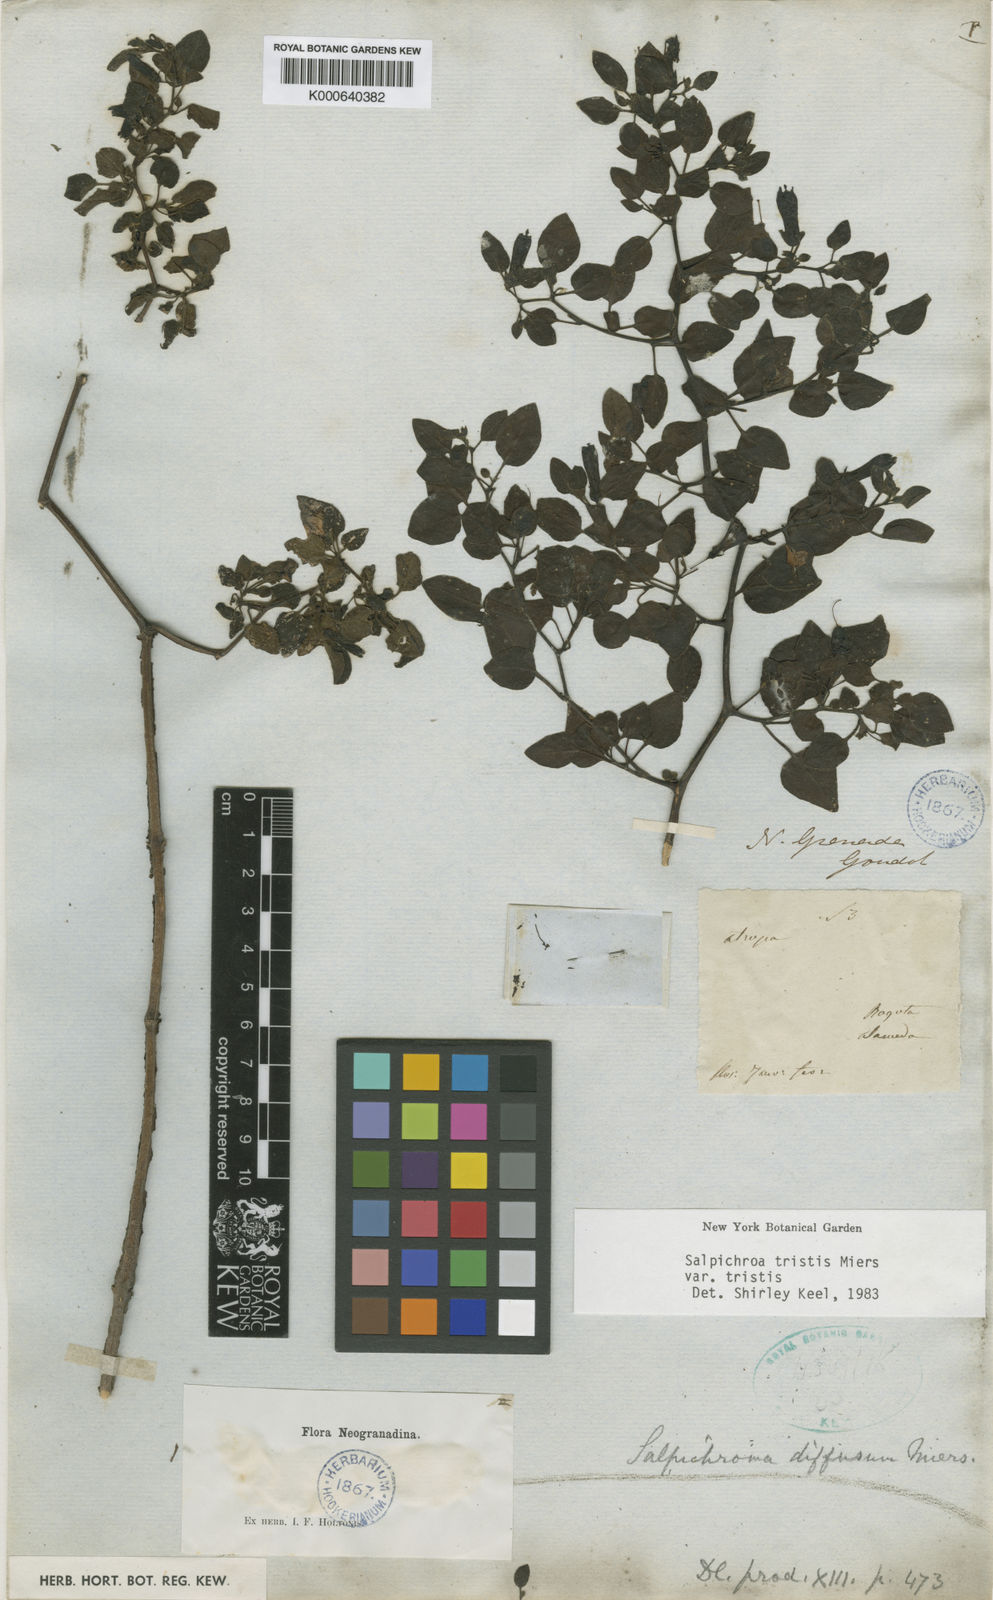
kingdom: Plantae
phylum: Tracheophyta
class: Magnoliopsida
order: Solanales
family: Solanaceae
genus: Salpichroa
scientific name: Salpichroa
